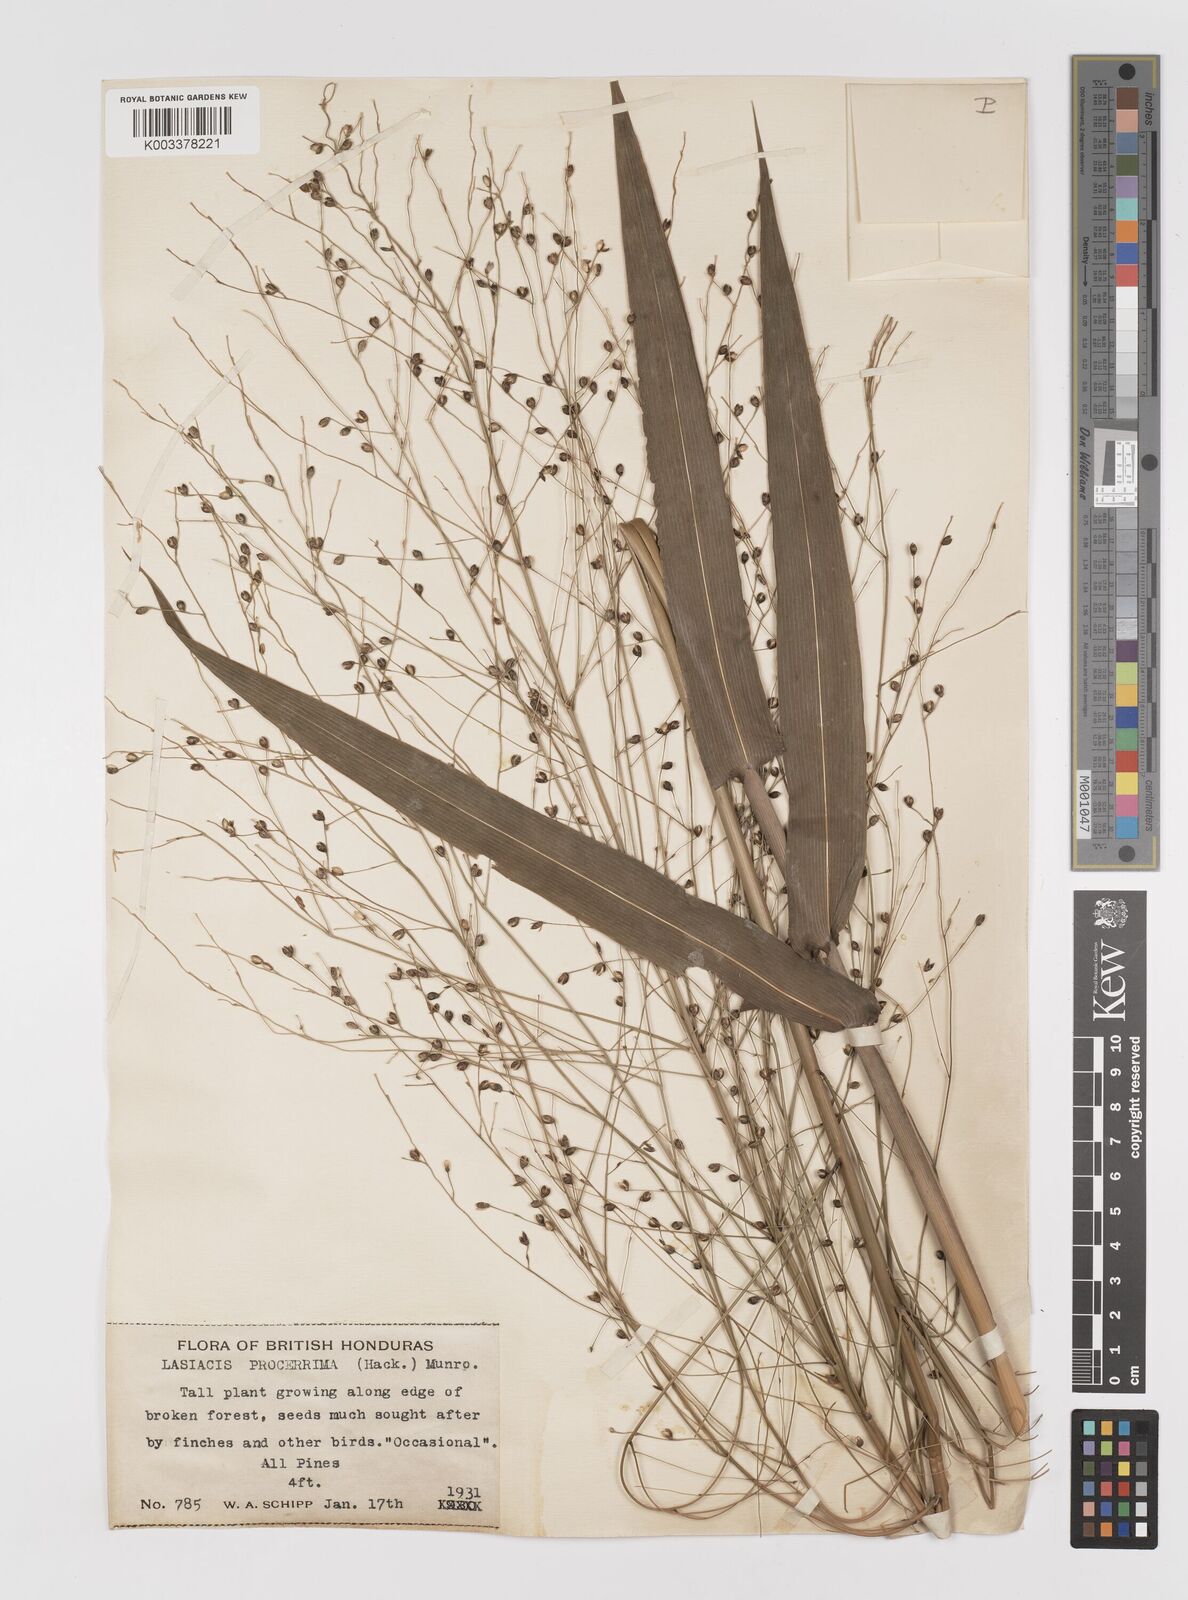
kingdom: Plantae
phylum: Tracheophyta
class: Liliopsida
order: Poales
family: Poaceae
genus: Lasiacis
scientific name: Lasiacis procerrima
